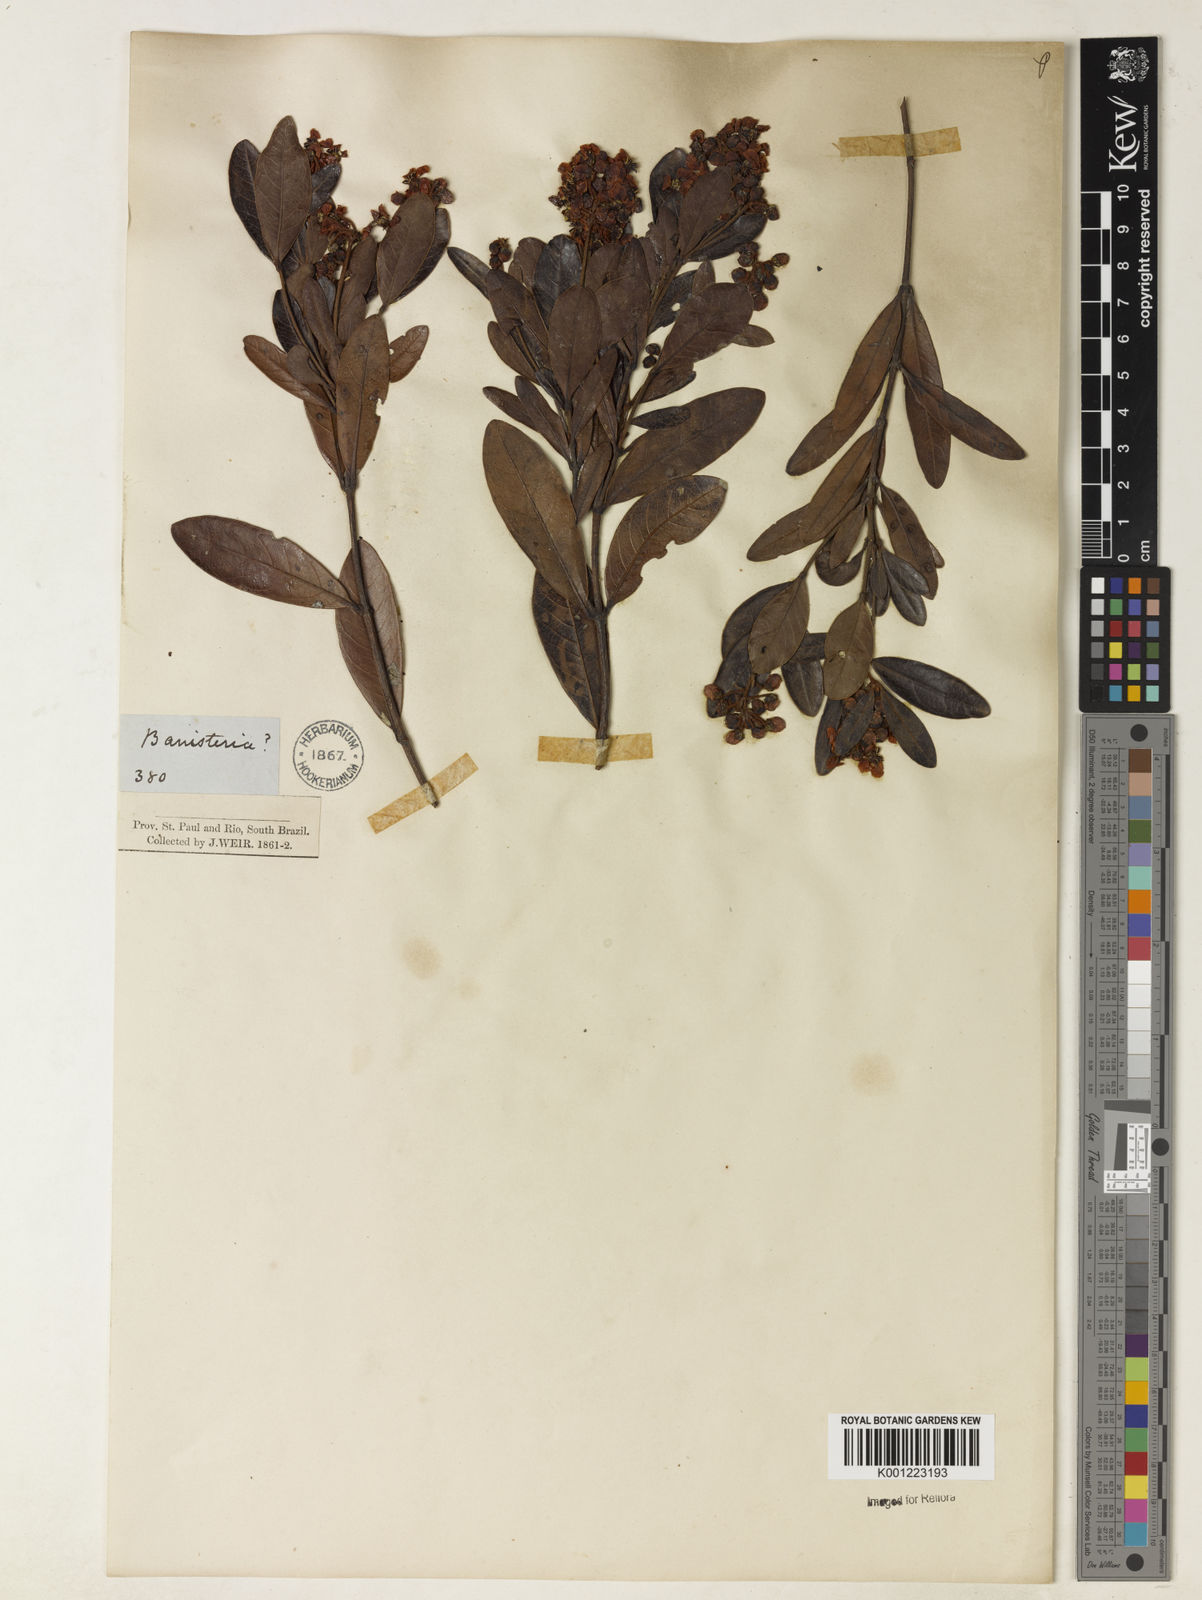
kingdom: Plantae
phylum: Tracheophyta
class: Magnoliopsida
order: Malpighiales
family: Malpighiaceae
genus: Byrsonima
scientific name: Byrsonima
